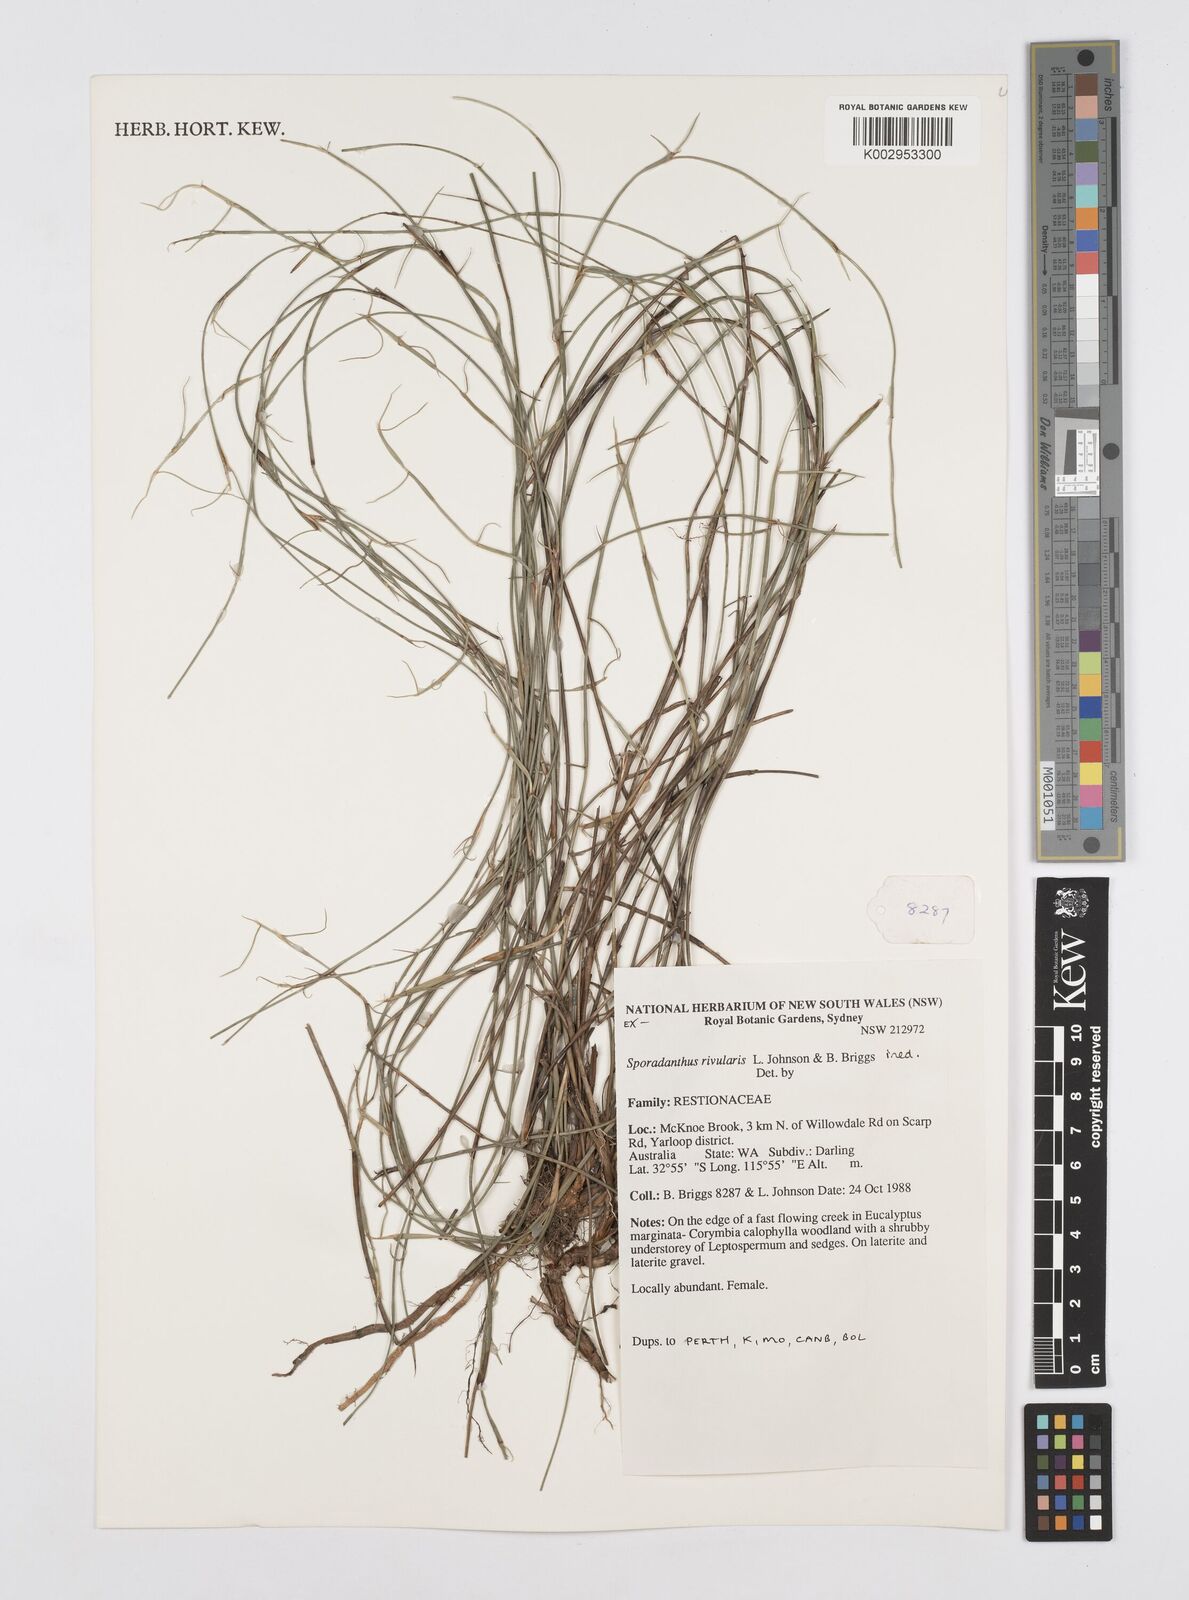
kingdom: Plantae
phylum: Tracheophyta
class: Liliopsida
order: Poales
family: Restionaceae
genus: Sporadanthus
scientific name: Sporadanthus rivularis
